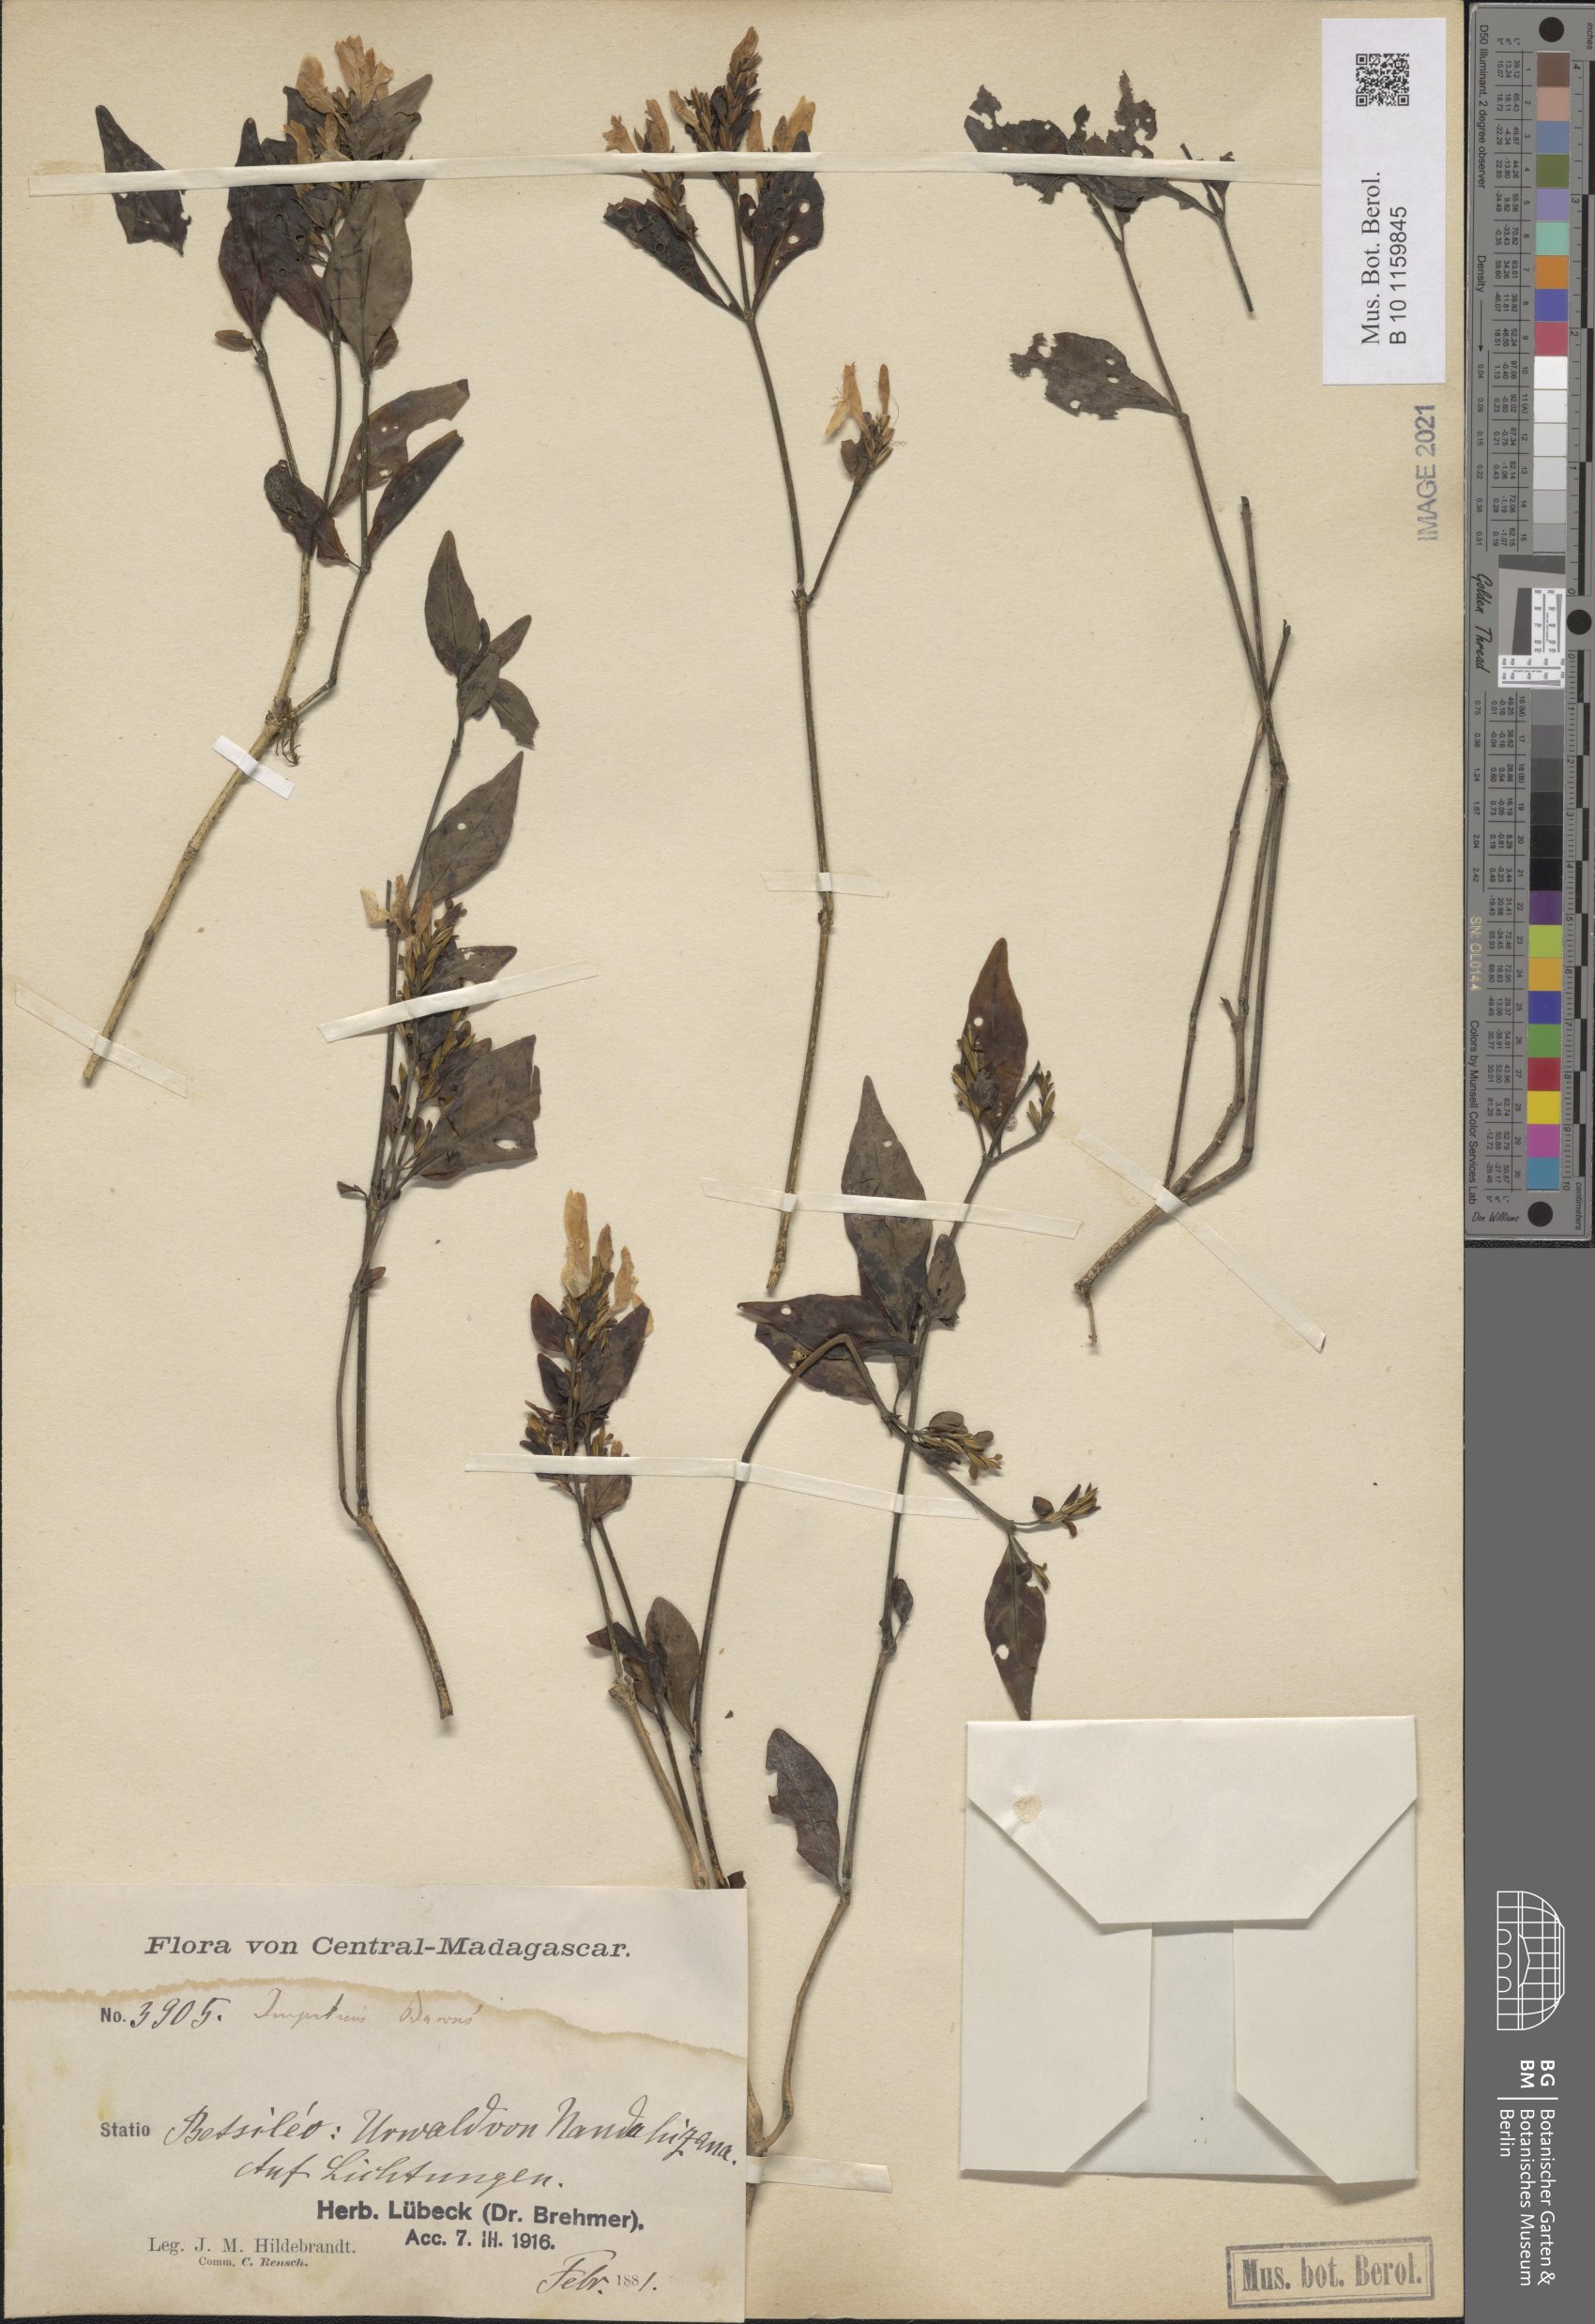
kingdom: Plantae
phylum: Tracheophyta
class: Magnoliopsida
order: Lamiales
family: Acanthaceae
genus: Hypoestes
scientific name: Hypoestes betsiliensis
